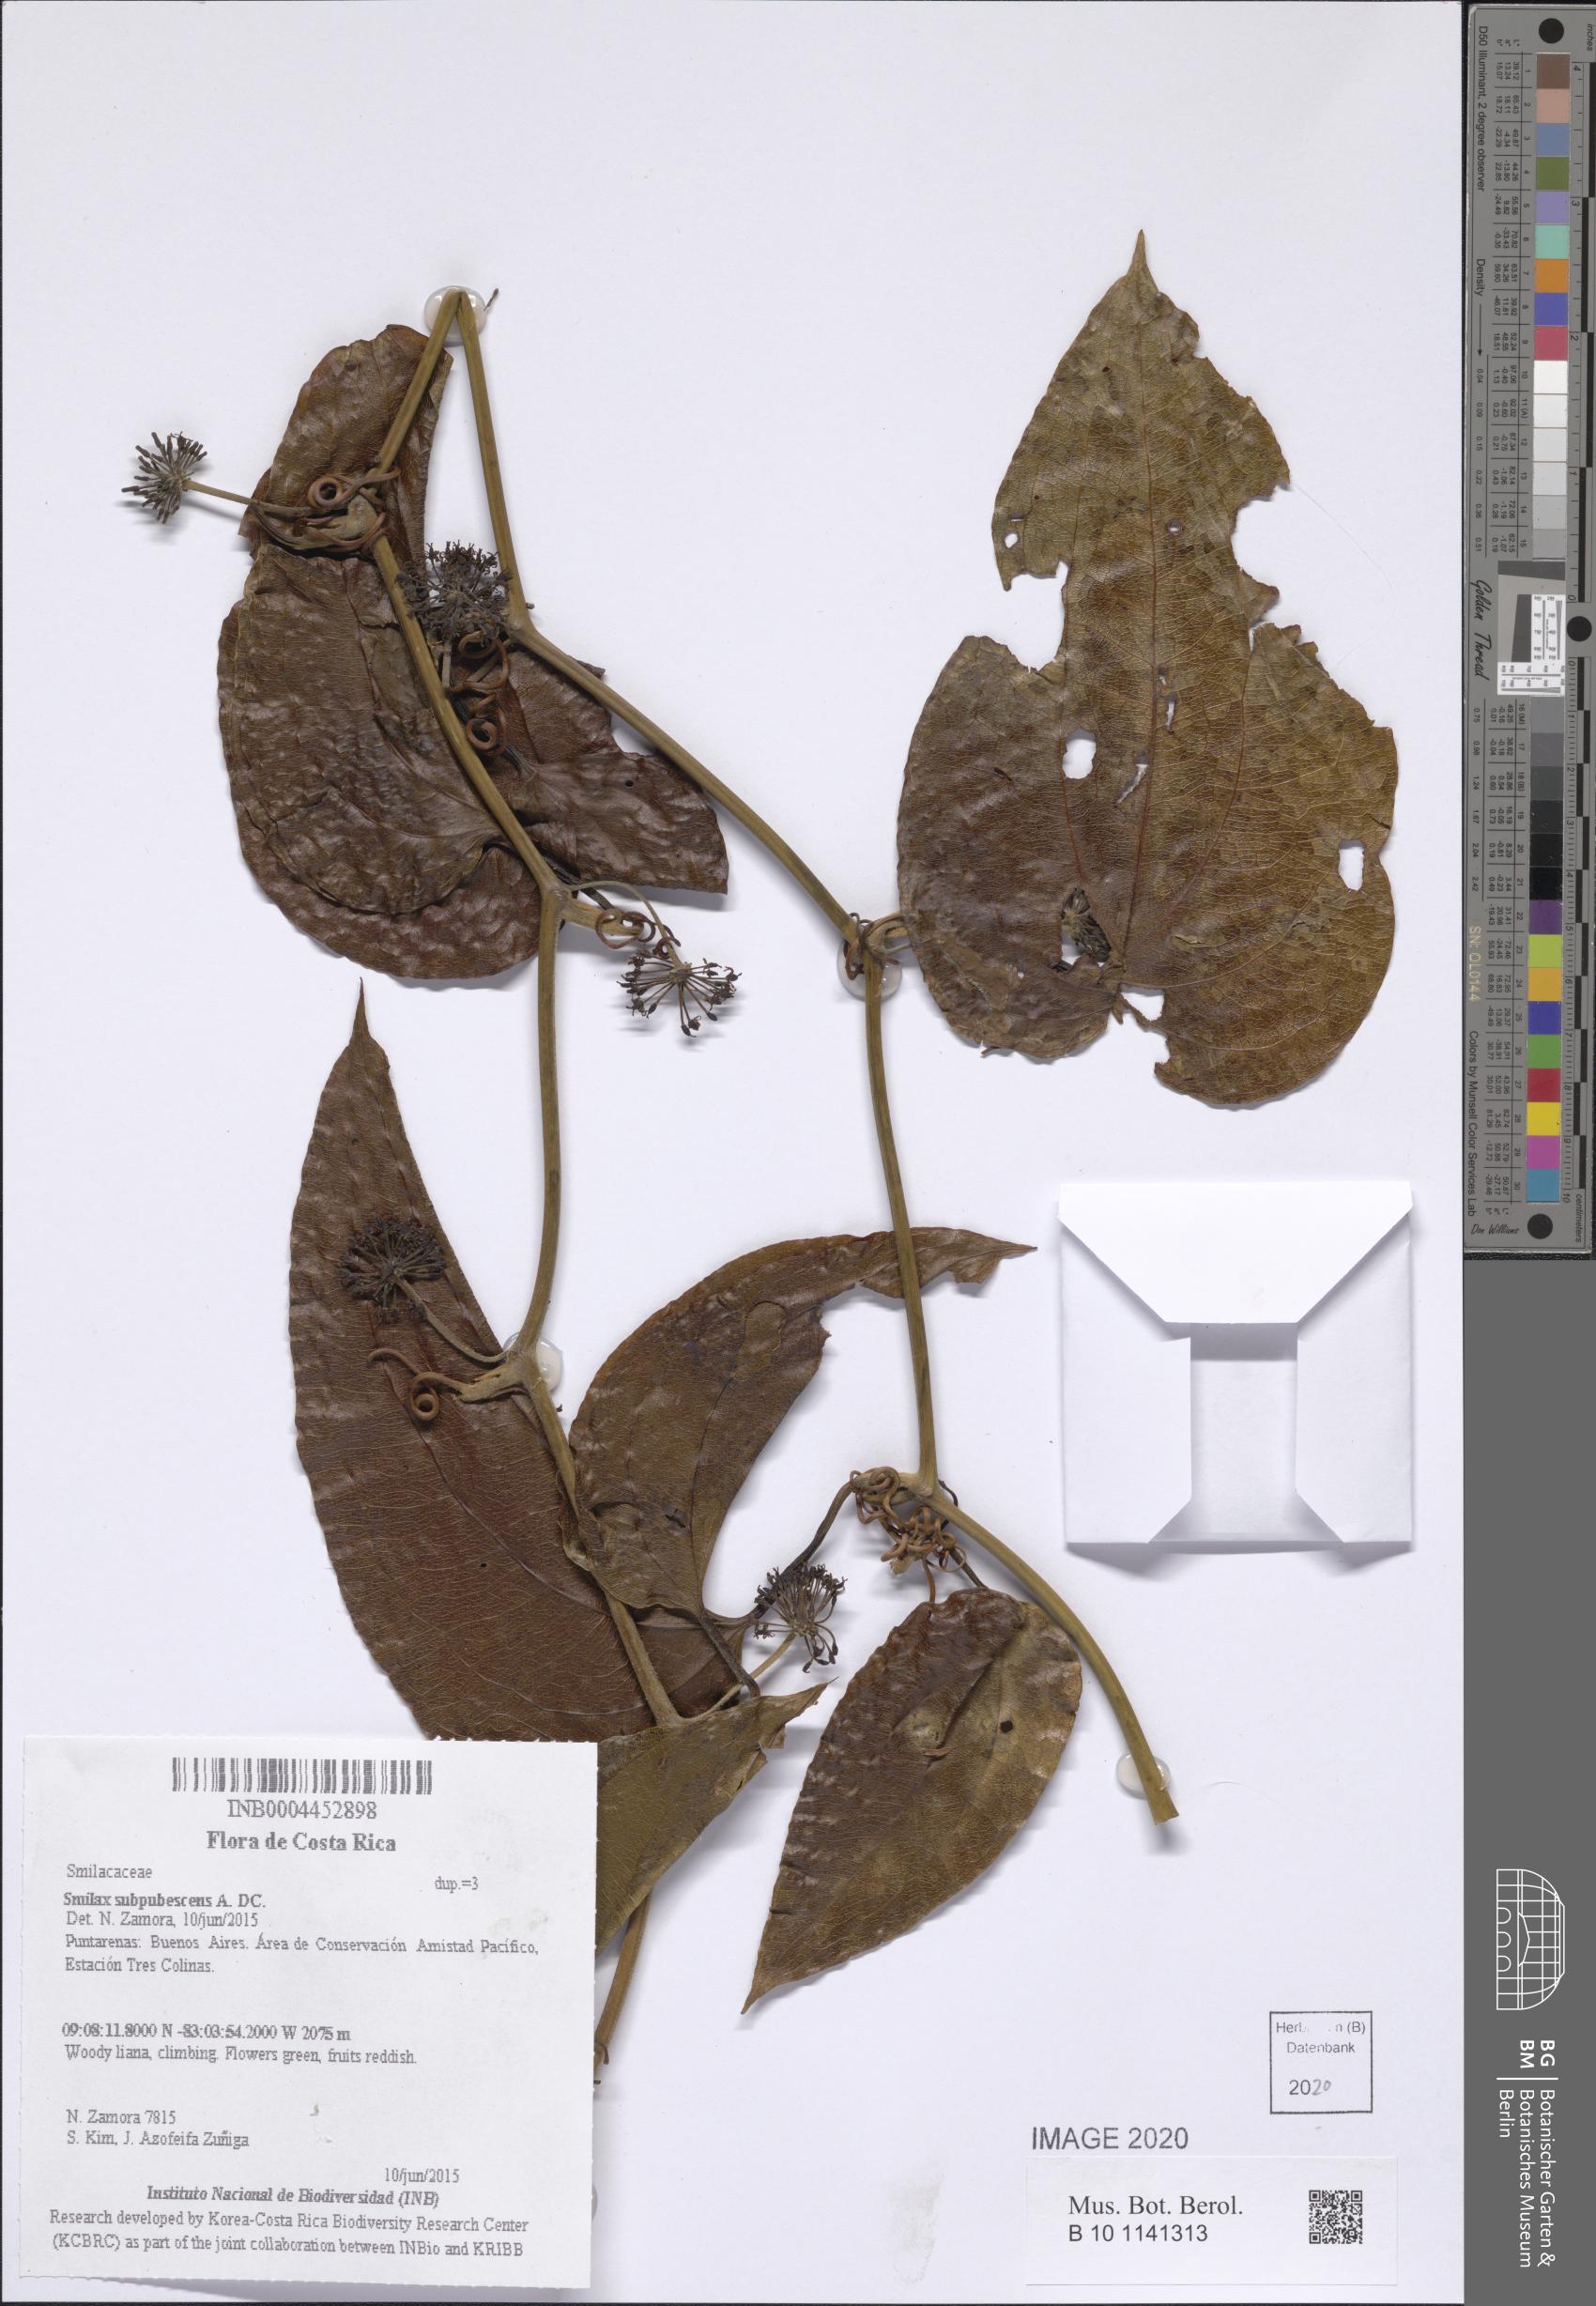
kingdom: Plantae
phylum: Tracheophyta
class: Liliopsida
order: Liliales
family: Smilacaceae
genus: Smilax
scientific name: Smilax subpubescens
